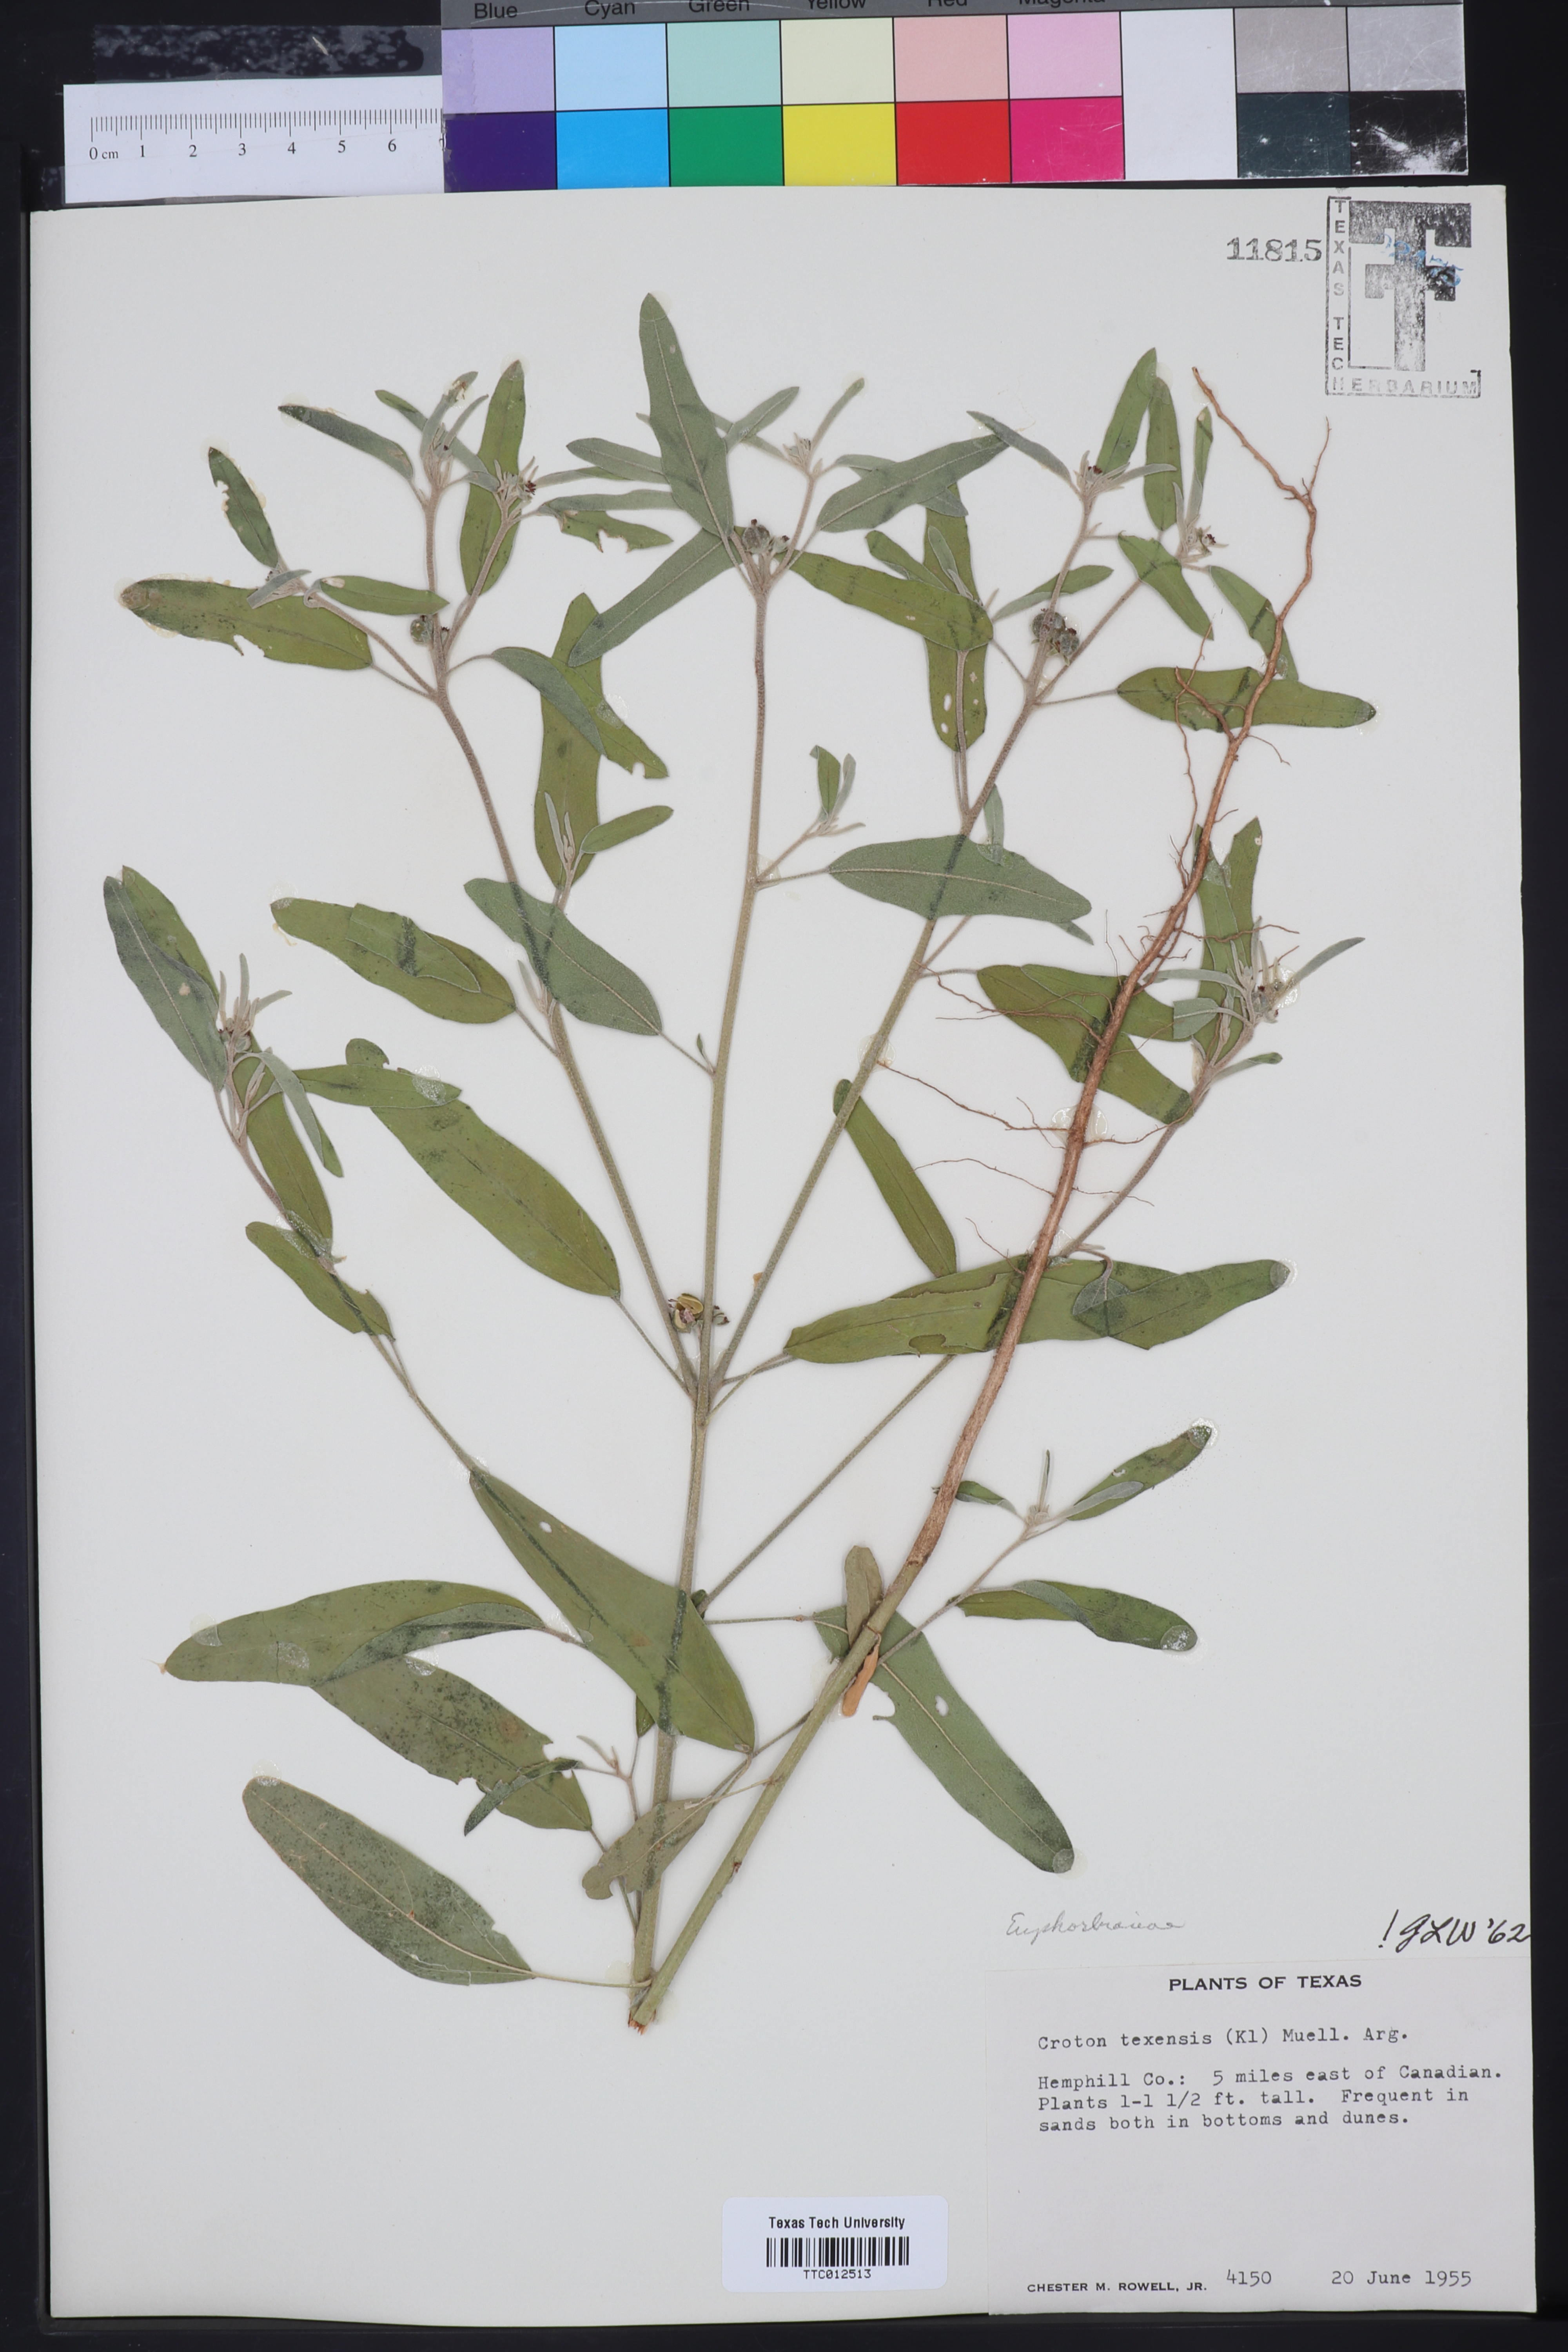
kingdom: Plantae
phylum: Tracheophyta
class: Magnoliopsida
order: Malpighiales
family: Euphorbiaceae
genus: Croton
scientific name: Croton texensis
